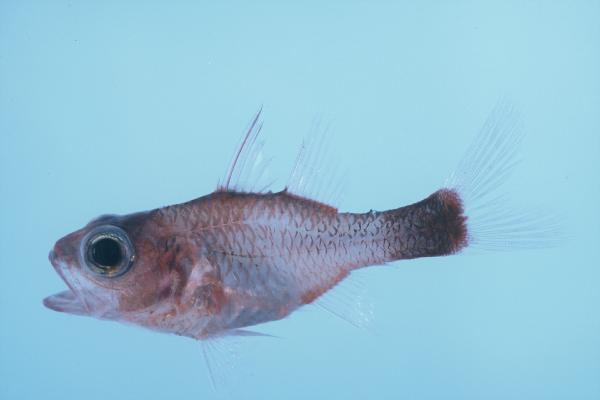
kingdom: Animalia
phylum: Chordata
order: Perciformes
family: Apogonidae
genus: Apogon
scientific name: Apogon
